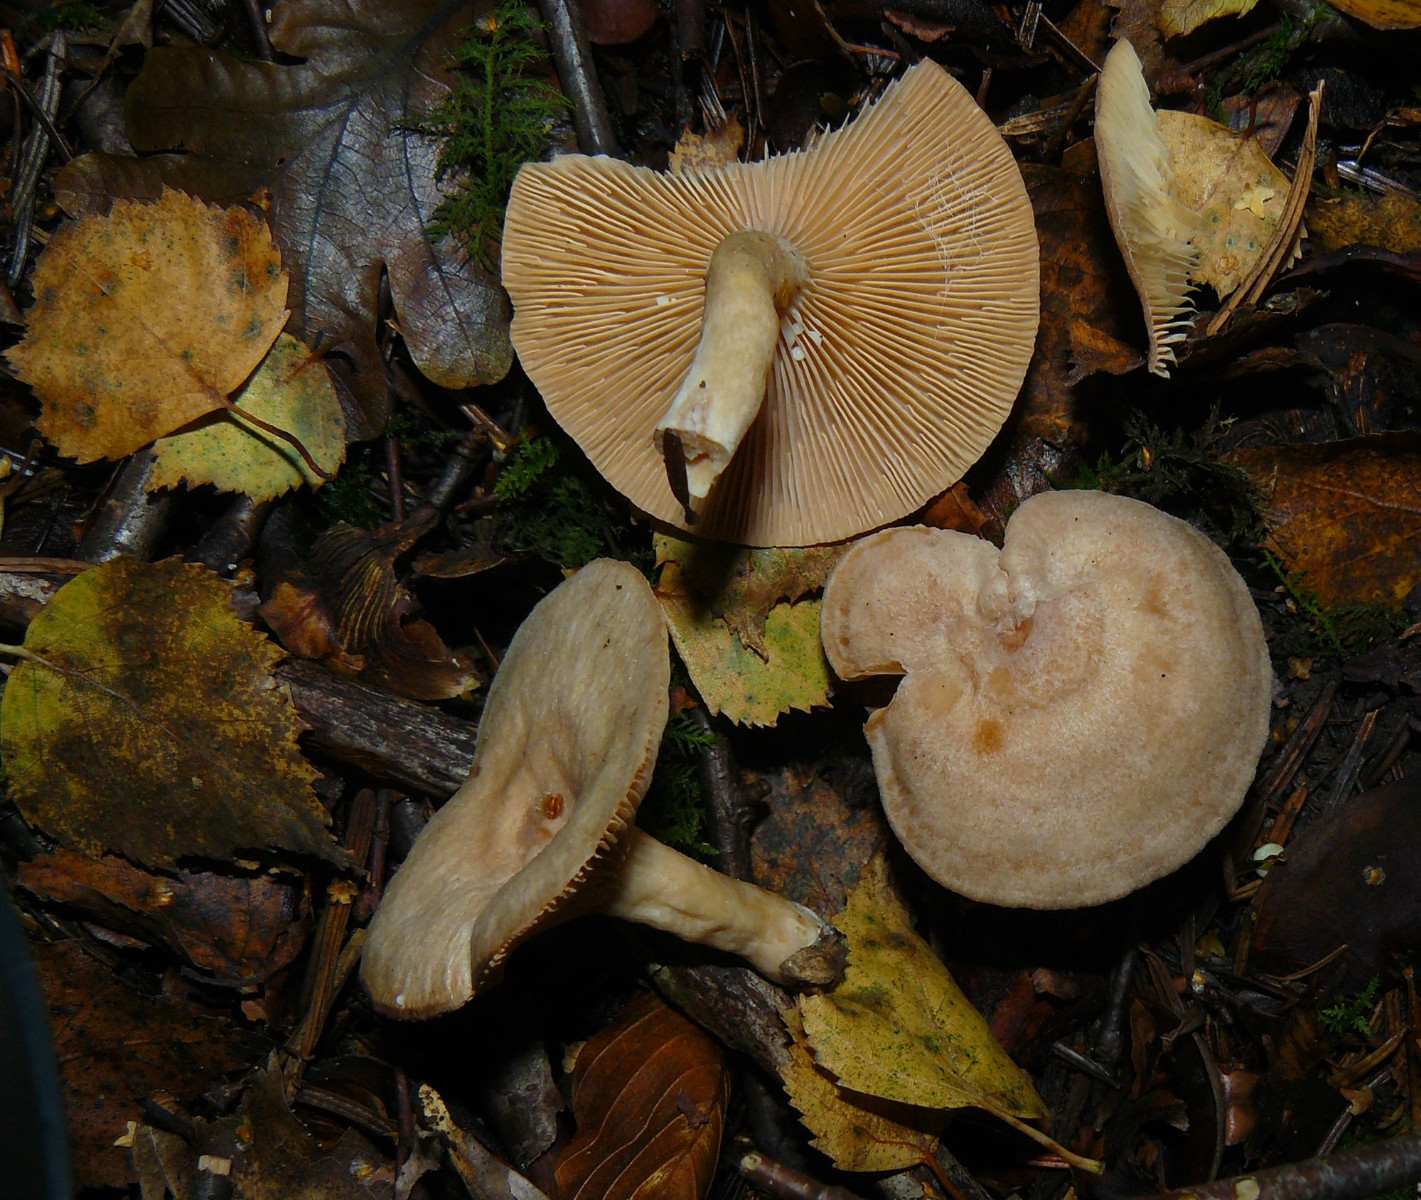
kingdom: Fungi
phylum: Basidiomycota
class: Agaricomycetes
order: Russulales
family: Russulaceae
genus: Lactarius
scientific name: Lactarius glyciosmus
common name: kokos-mælkehat
